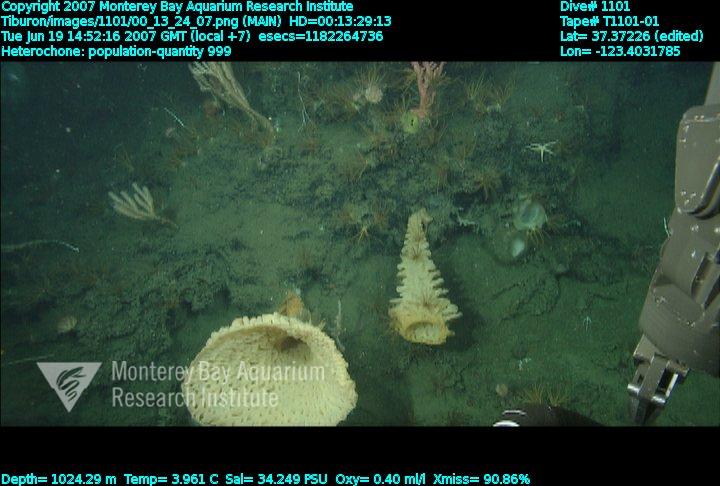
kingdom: Animalia
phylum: Porifera
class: Hexactinellida
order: Sceptrulophora
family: Aphrocallistidae
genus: Heterochone
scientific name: Heterochone
